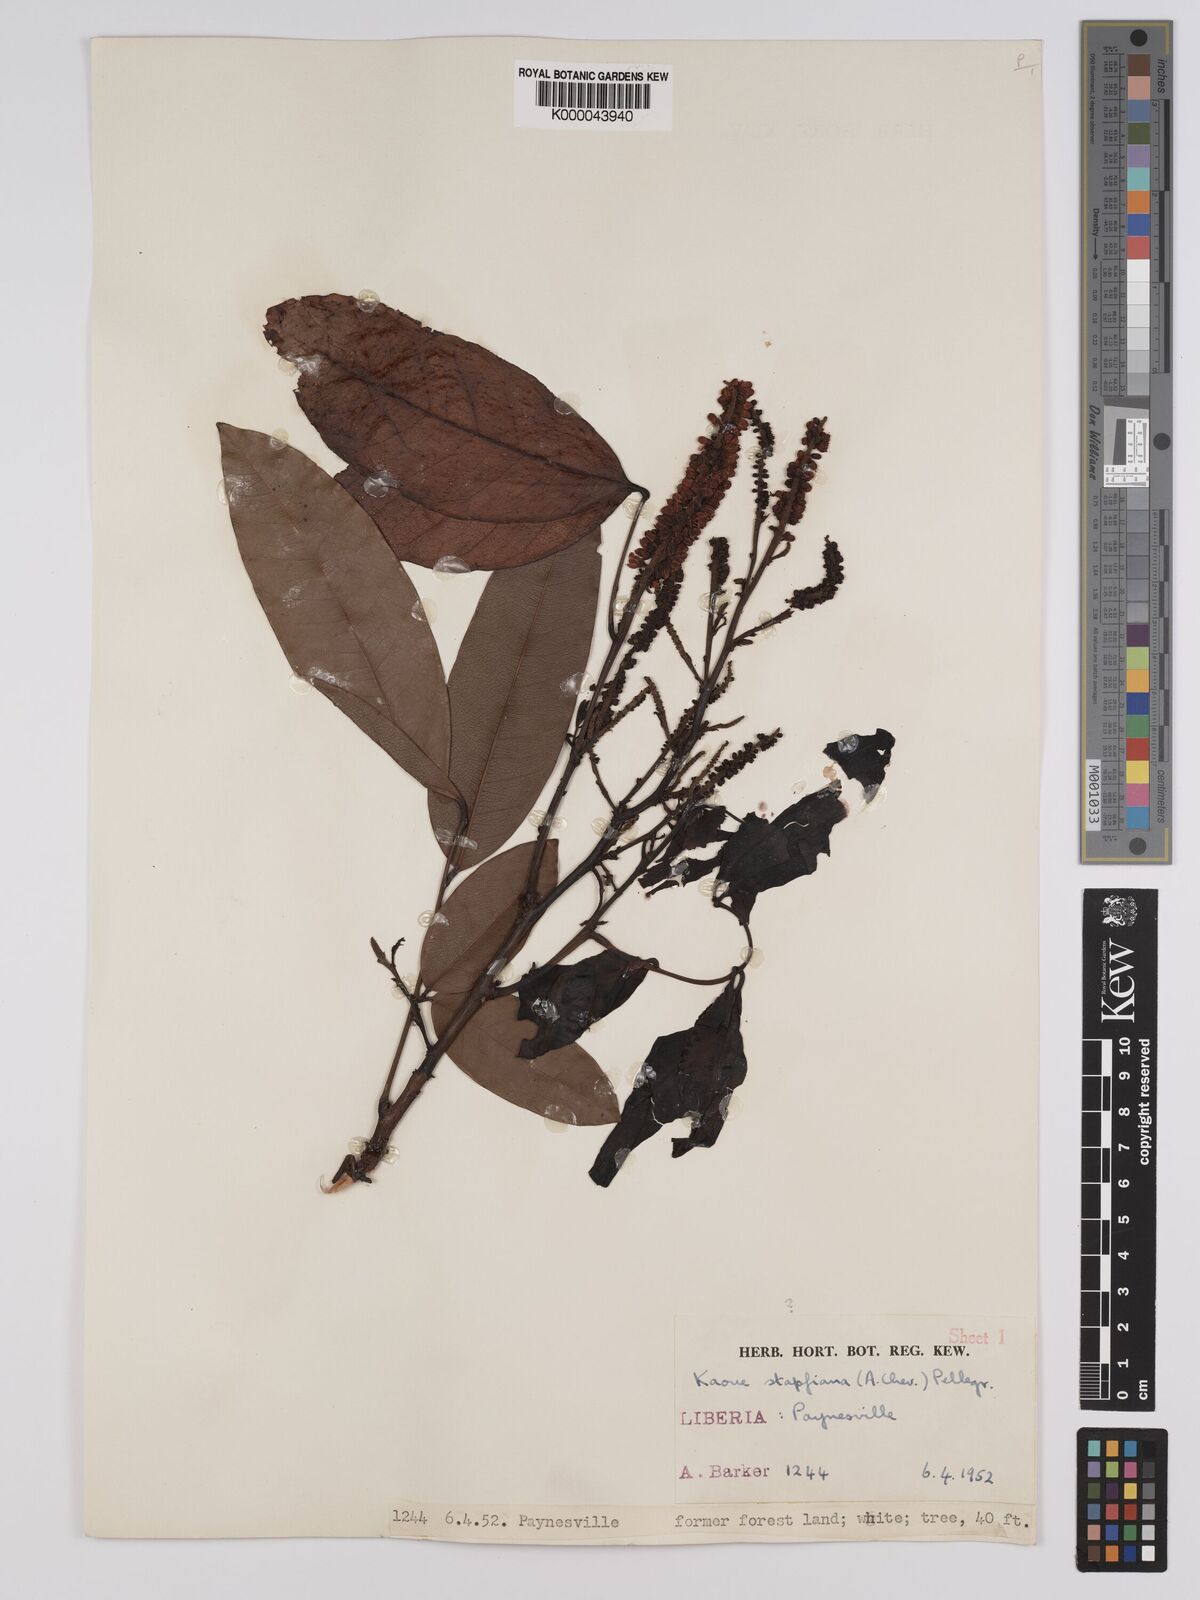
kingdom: Plantae
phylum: Tracheophyta
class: Magnoliopsida
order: Fabales
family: Fabaceae
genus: Stachyothyrsus
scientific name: Stachyothyrsus
